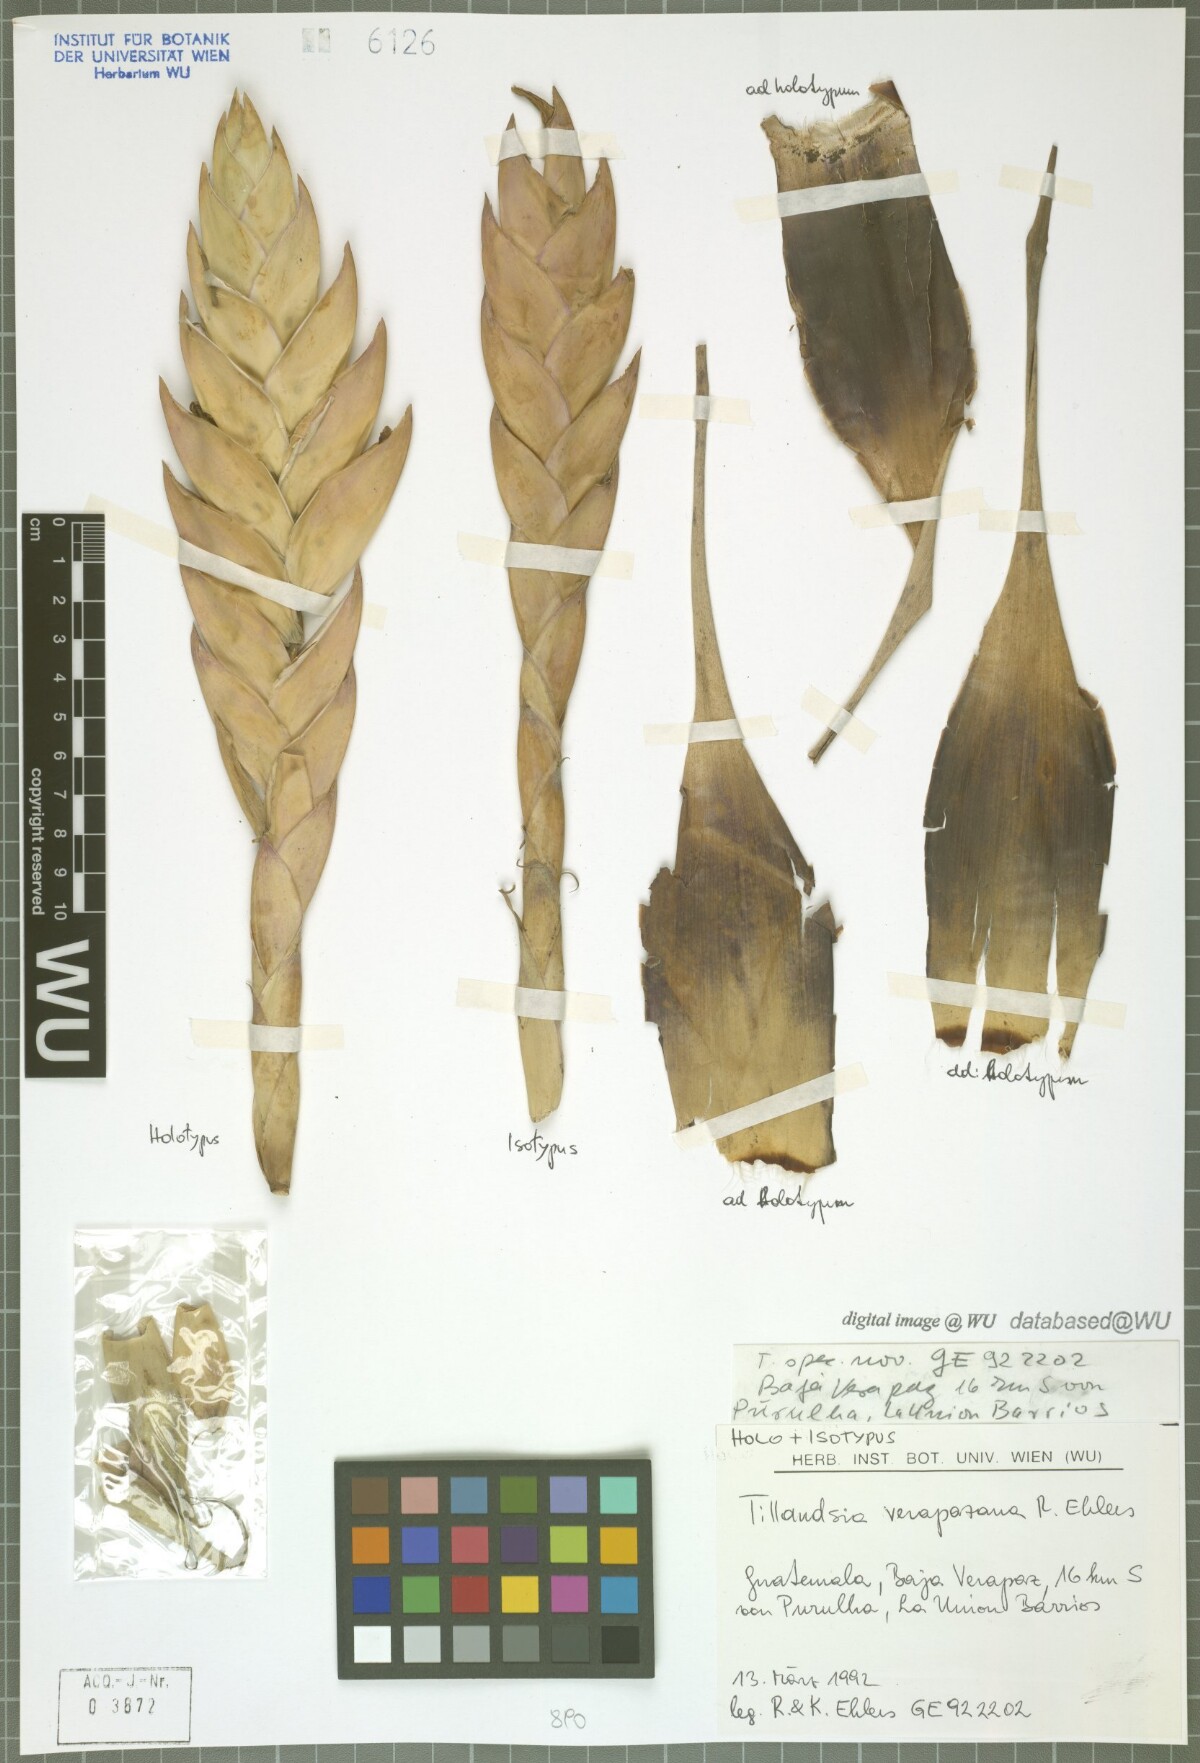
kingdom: Plantae
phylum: Tracheophyta
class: Liliopsida
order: Poales
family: Bromeliaceae
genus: Tillandsia
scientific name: Tillandsia verapazana
